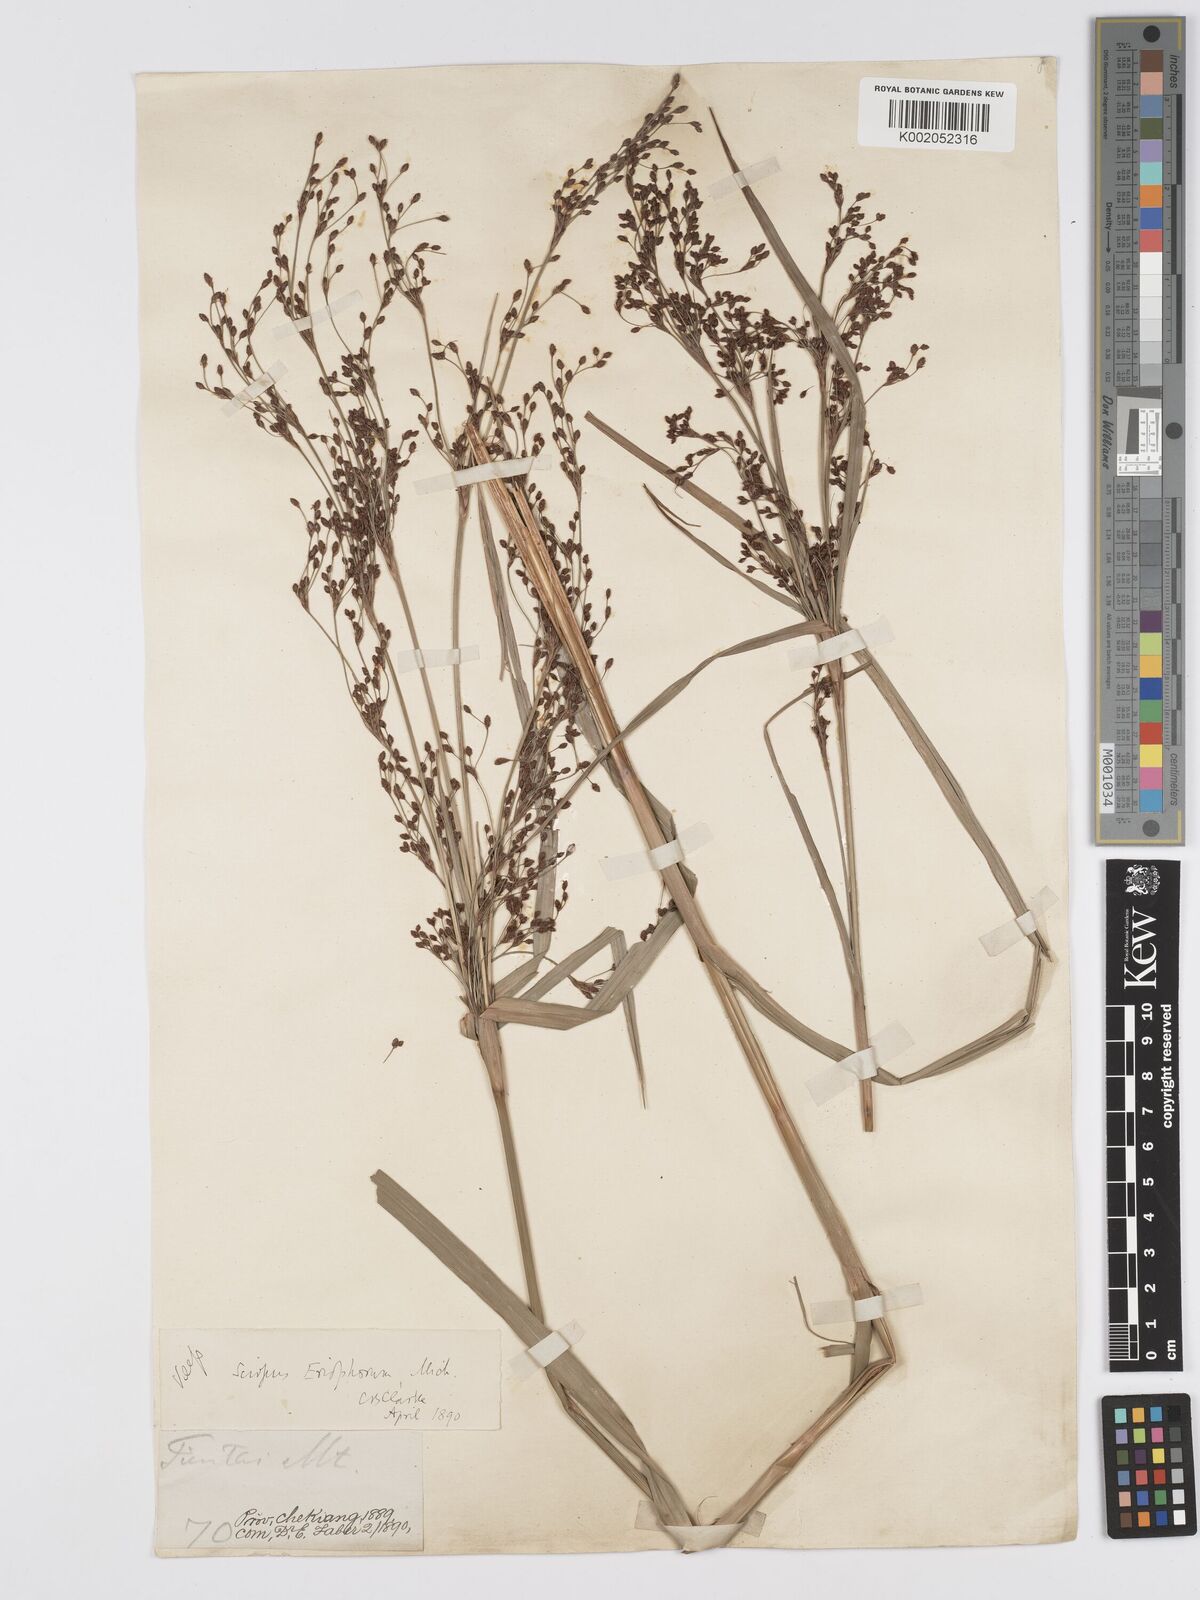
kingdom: Plantae
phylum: Tracheophyta
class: Liliopsida
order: Poales
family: Cyperaceae
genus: Scirpus
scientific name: Scirpus cyperinus
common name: Black-sheathed bulrush
